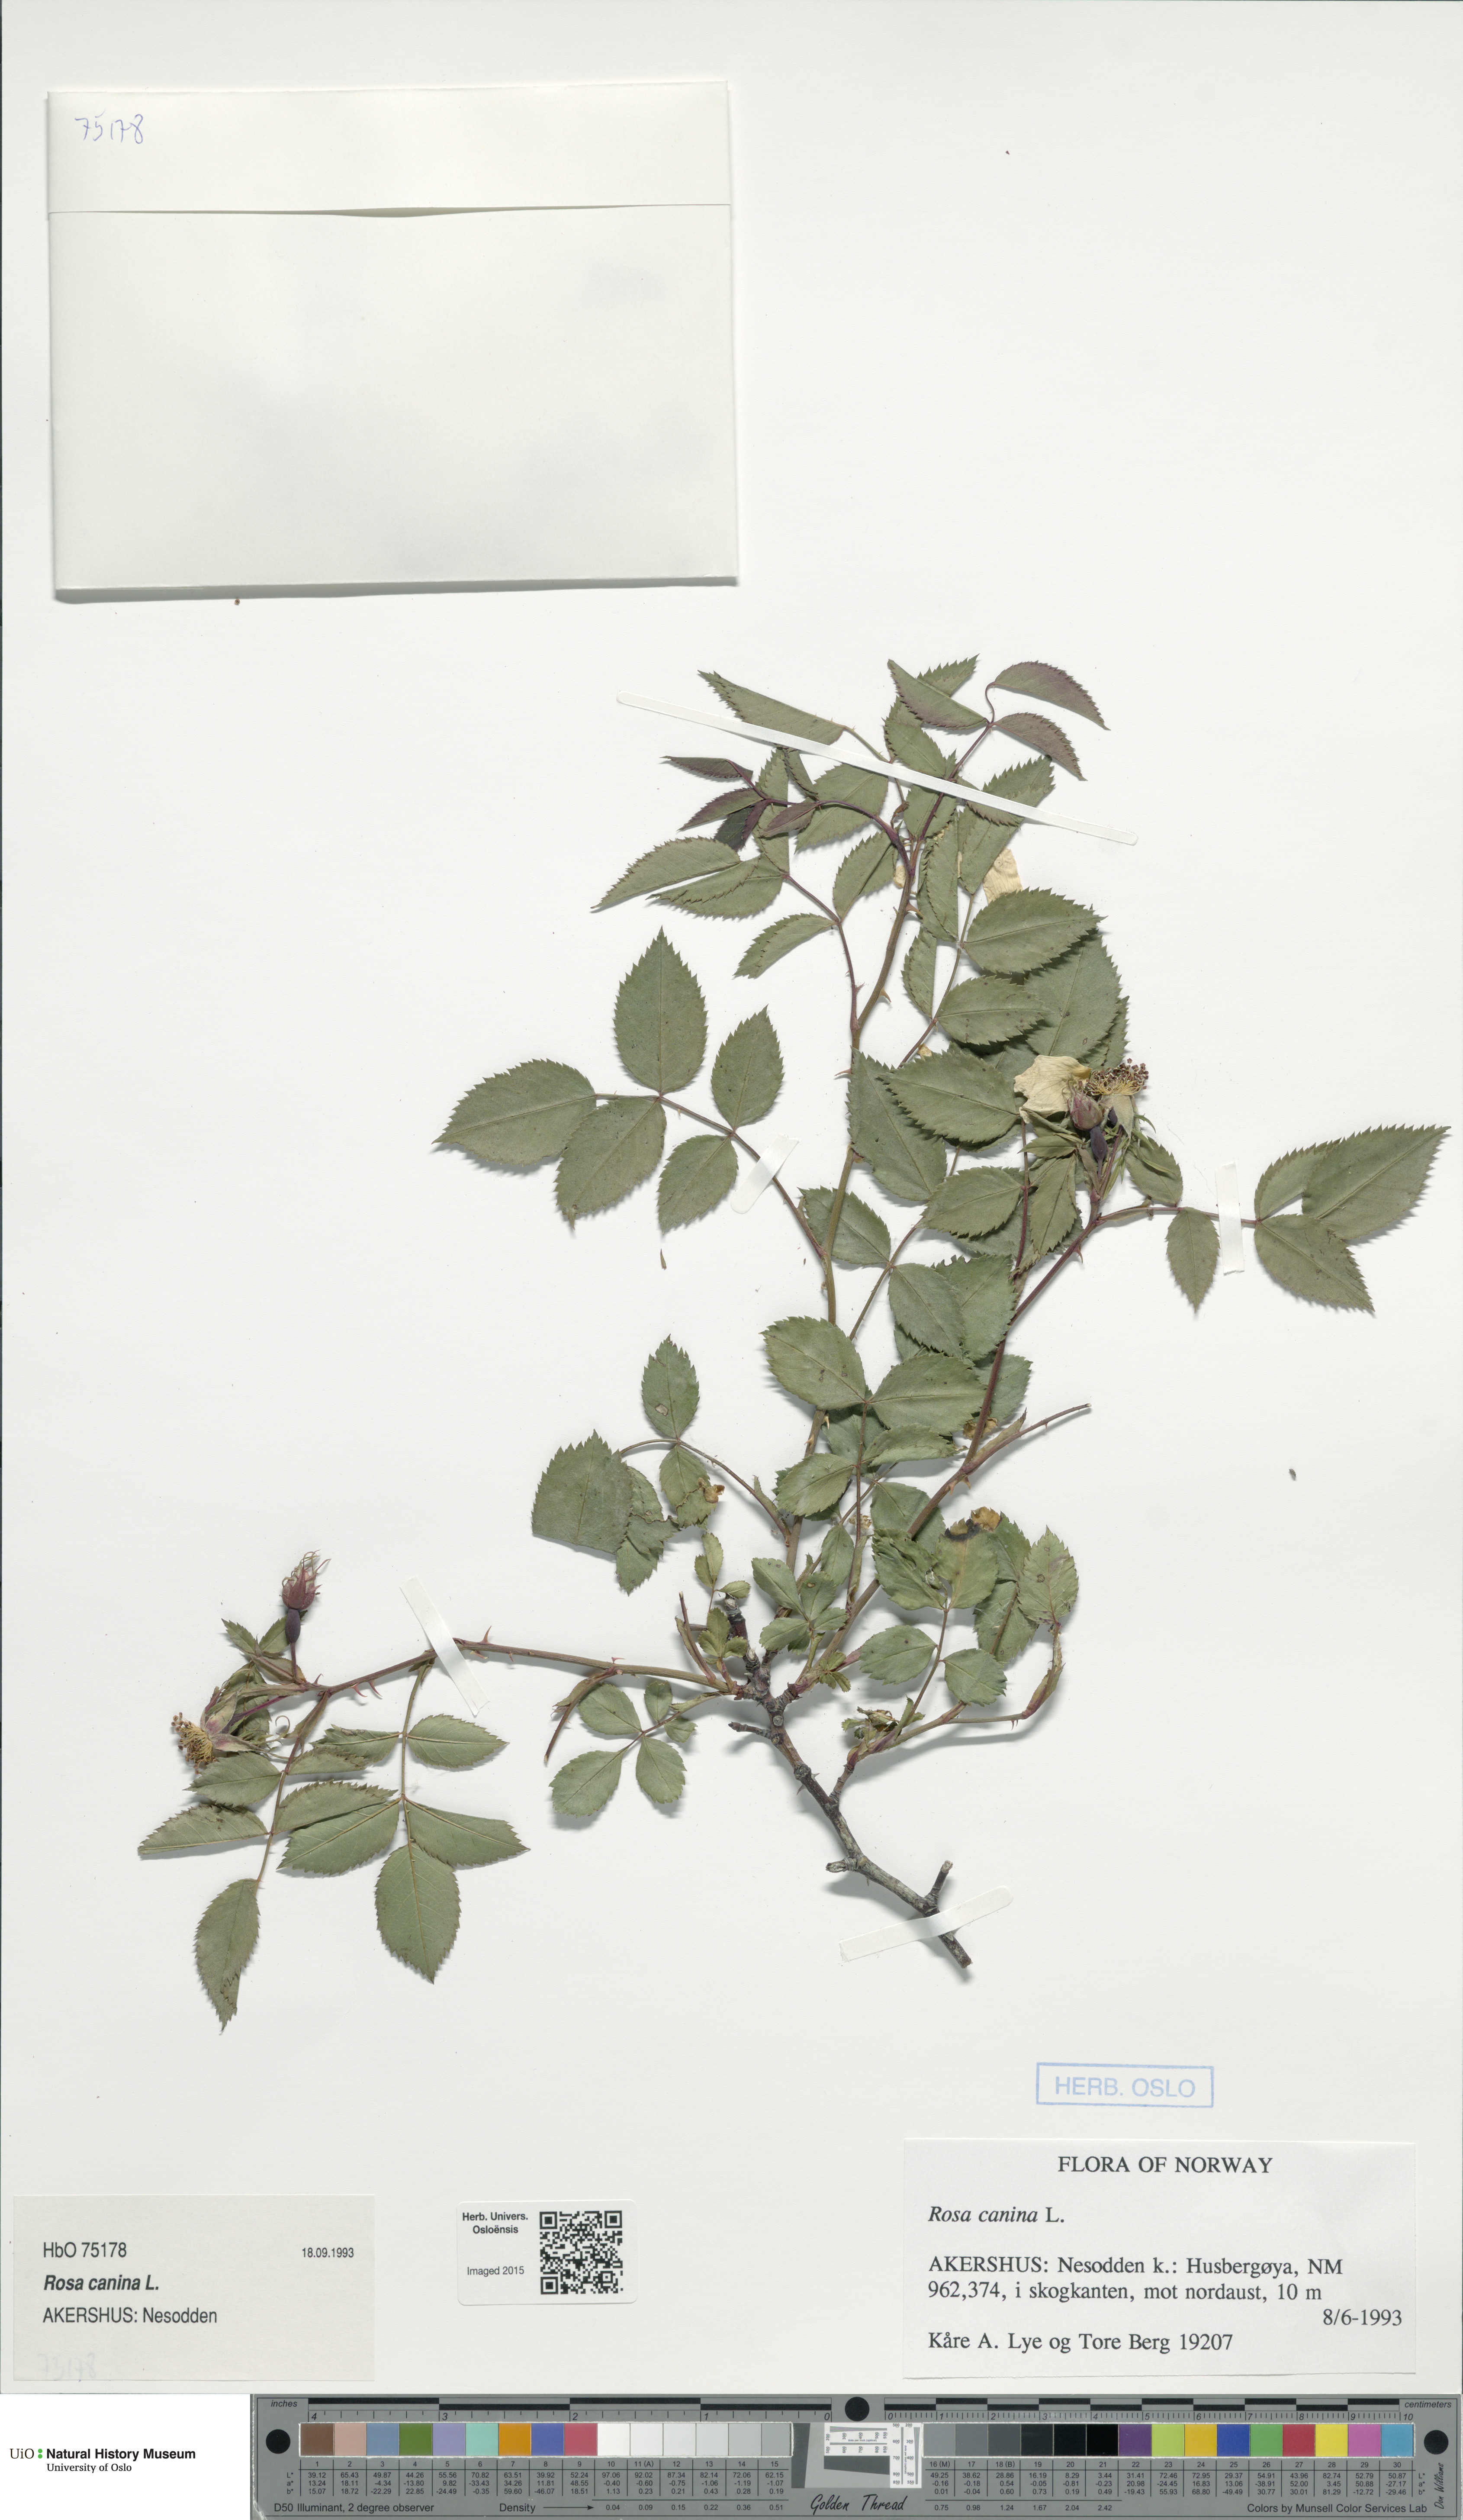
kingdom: Plantae
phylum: Tracheophyta
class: Magnoliopsida
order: Rosales
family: Rosaceae
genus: Rosa
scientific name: Rosa canina
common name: Dog rose
